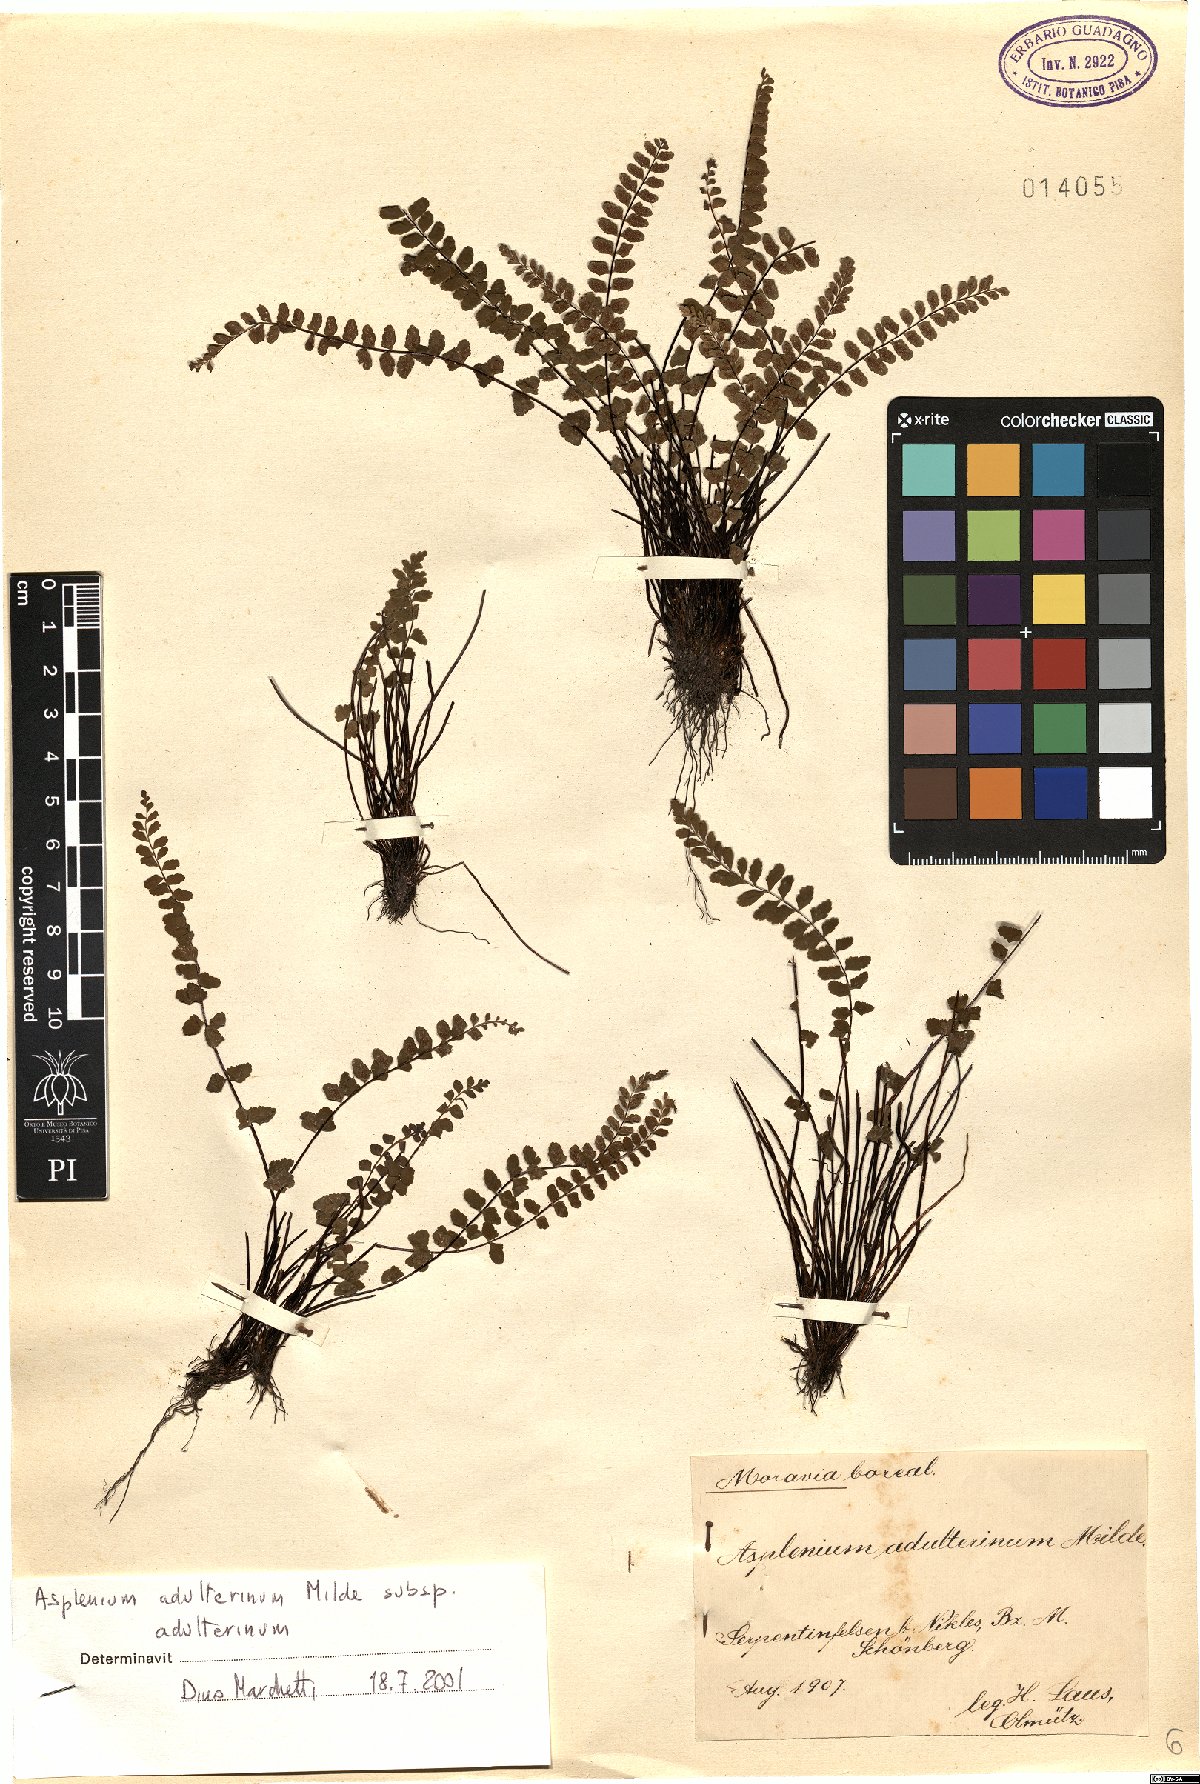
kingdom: Plantae
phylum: Tracheophyta
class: Polypodiopsida
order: Polypodiales
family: Aspleniaceae
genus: Asplenium
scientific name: Asplenium adulterinum
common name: Adulterated spleenwort
